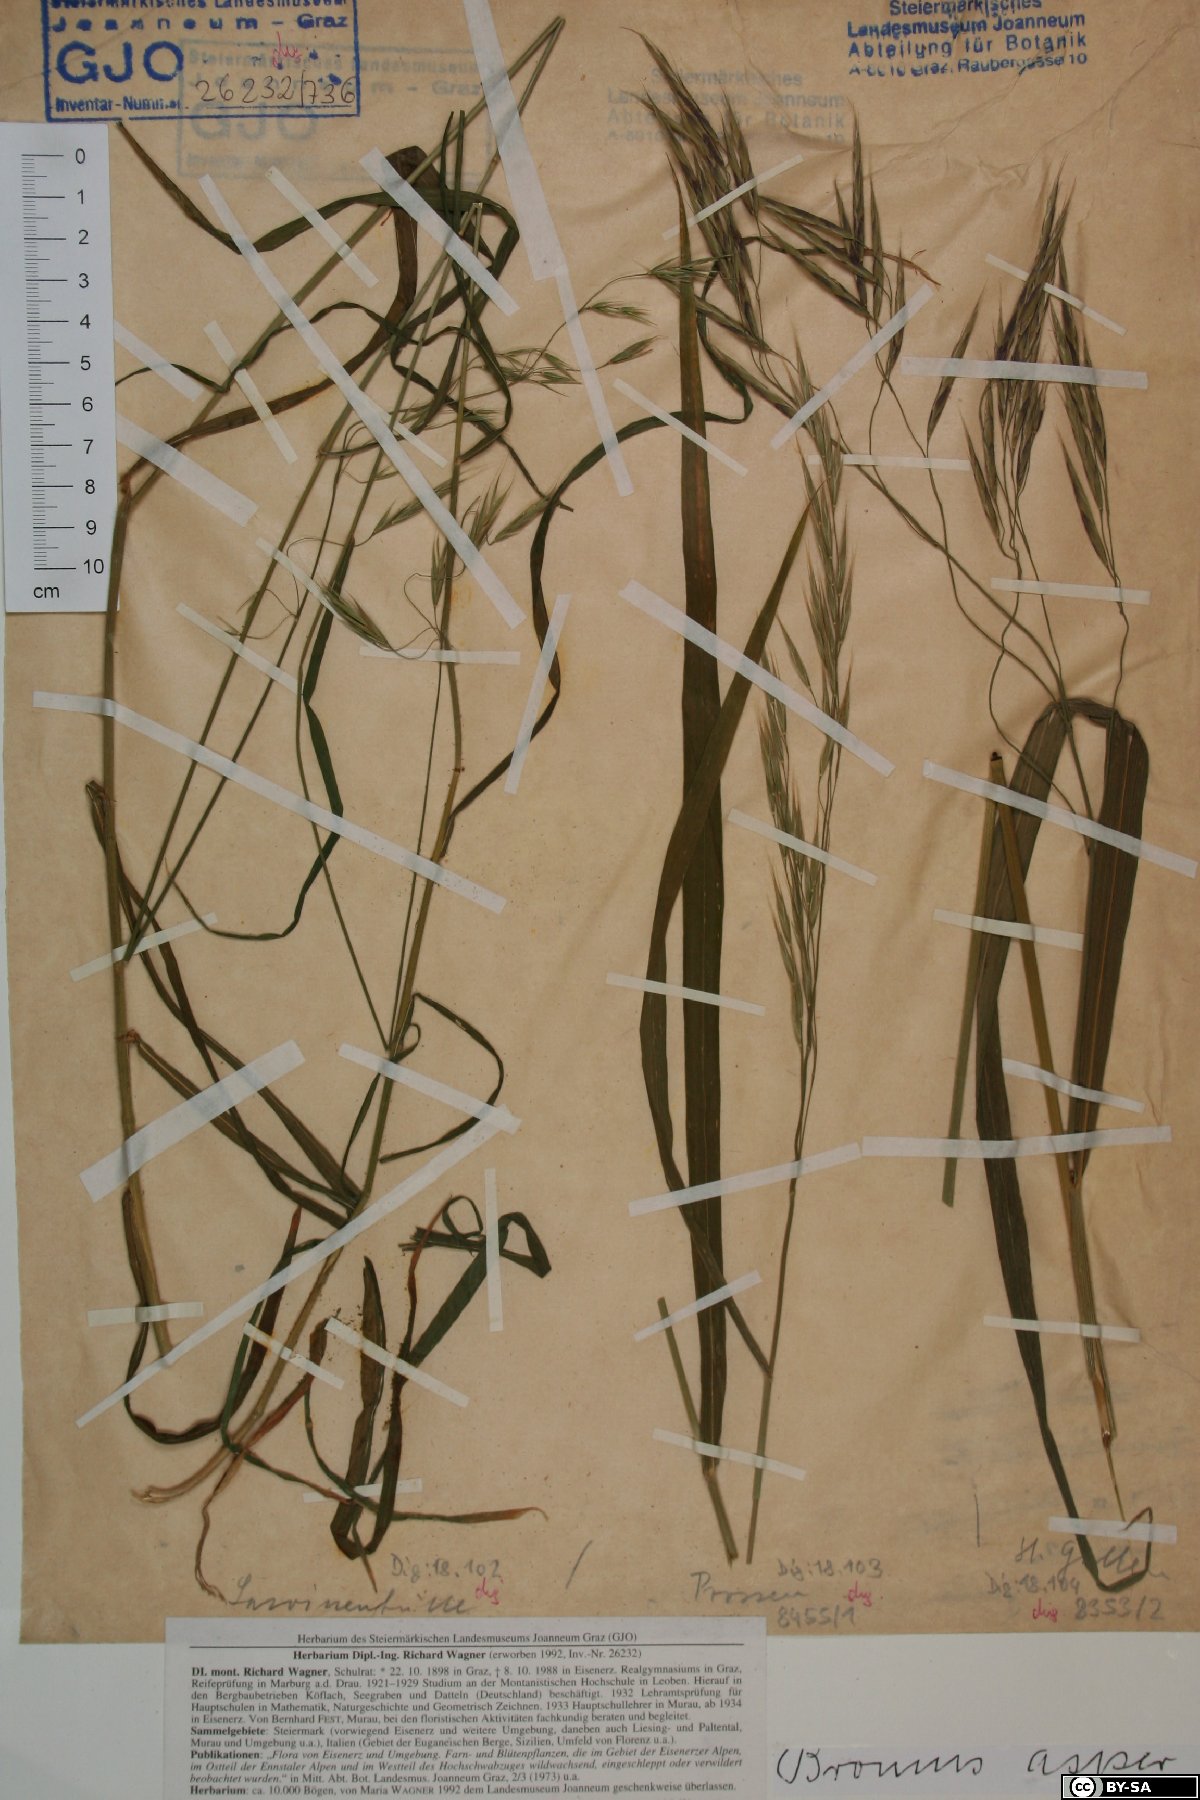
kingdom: Plantae
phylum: Tracheophyta
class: Liliopsida
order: Poales
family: Poaceae
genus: Bromus
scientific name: Bromus ramosus
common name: Hairy brome
